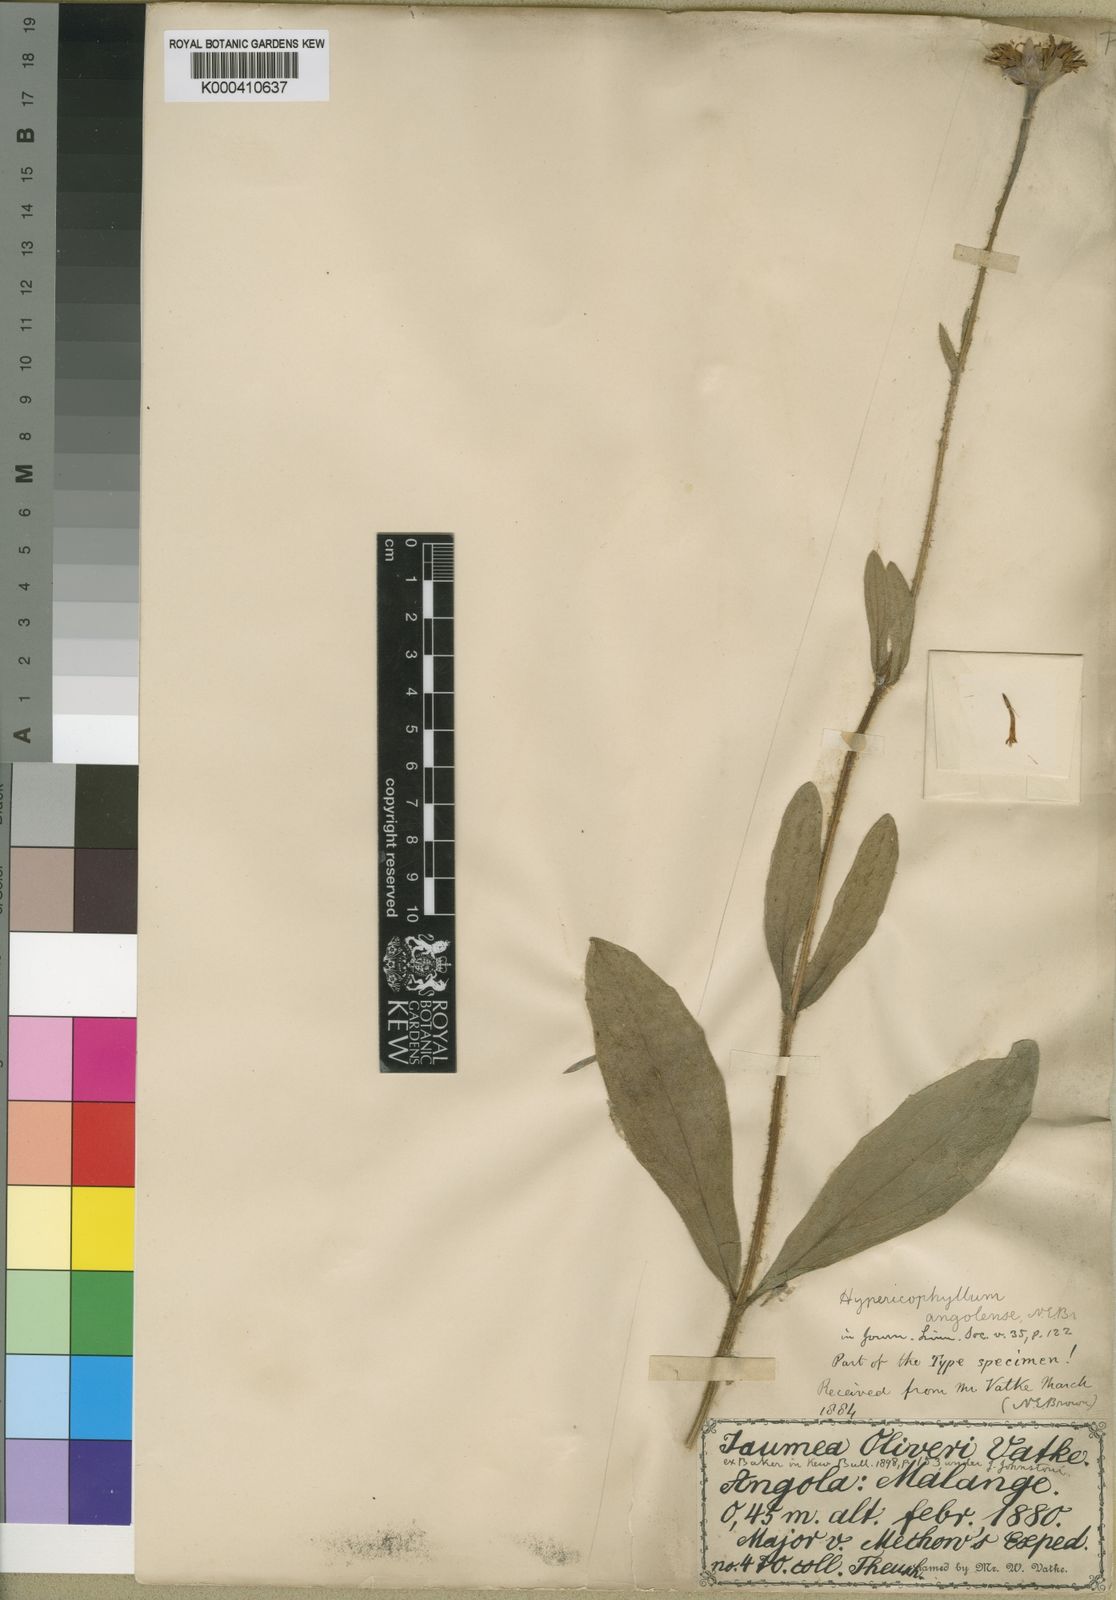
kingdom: Plantae
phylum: Tracheophyta
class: Magnoliopsida
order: Asterales
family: Asteraceae
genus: Hypericophyllum
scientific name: Hypericophyllum angolense
